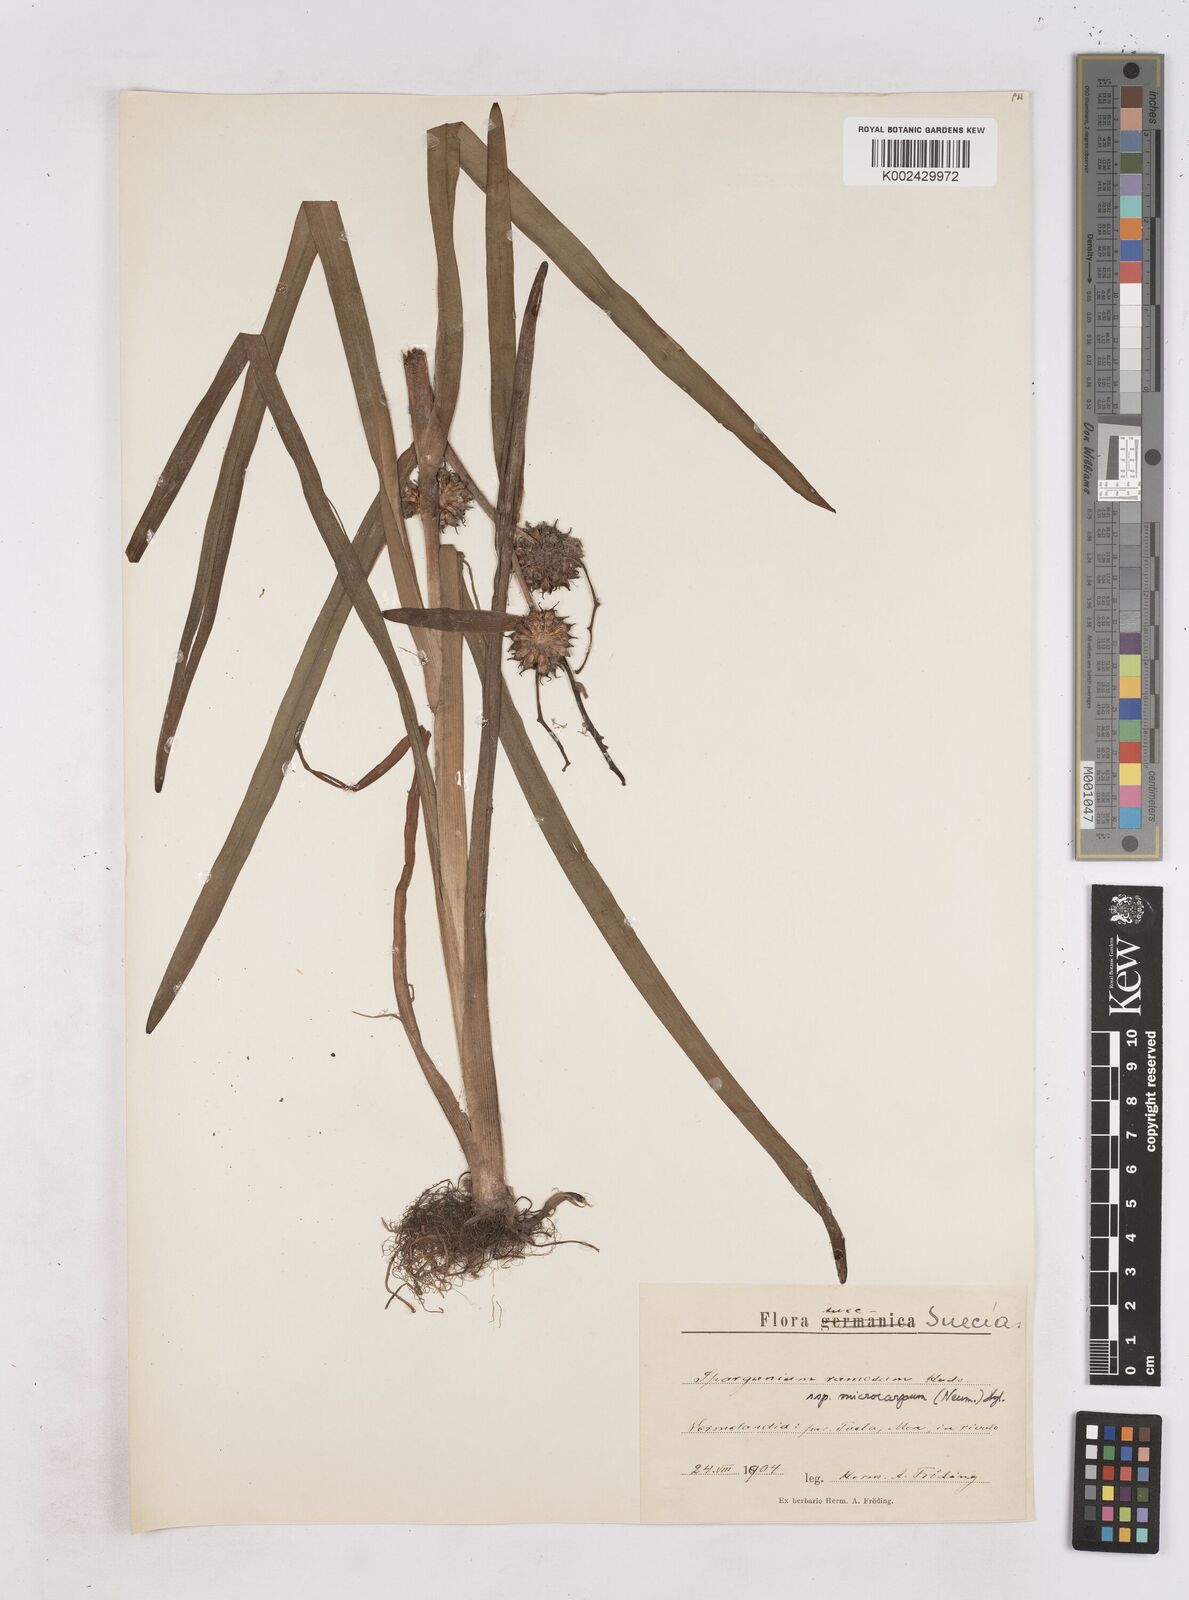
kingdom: Plantae
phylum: Tracheophyta
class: Liliopsida
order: Poales
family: Typhaceae
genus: Sparganium
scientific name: Sparganium erectum
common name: Branched bur-reed
